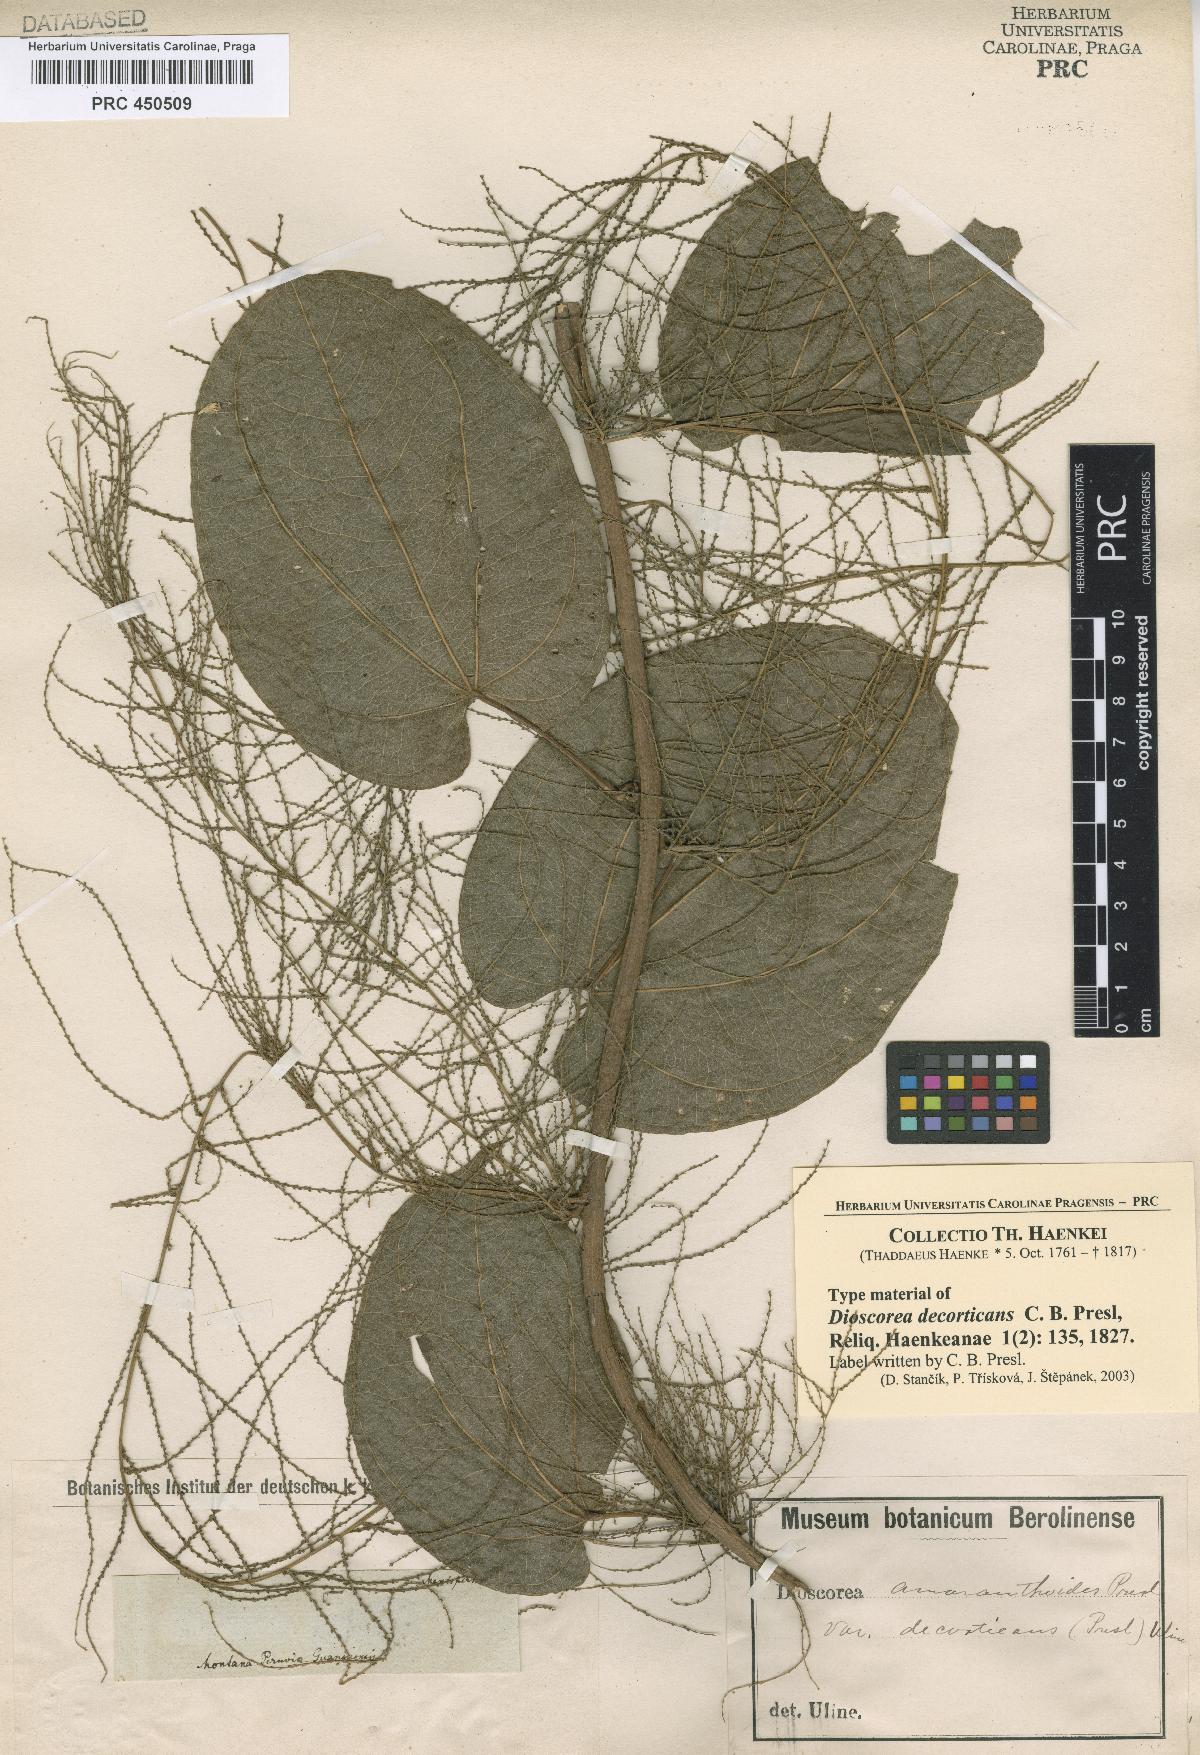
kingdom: Plantae
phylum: Tracheophyta
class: Liliopsida
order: Dioscoreales
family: Dioscoreaceae
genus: Dioscorea
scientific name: Dioscorea decorticans
